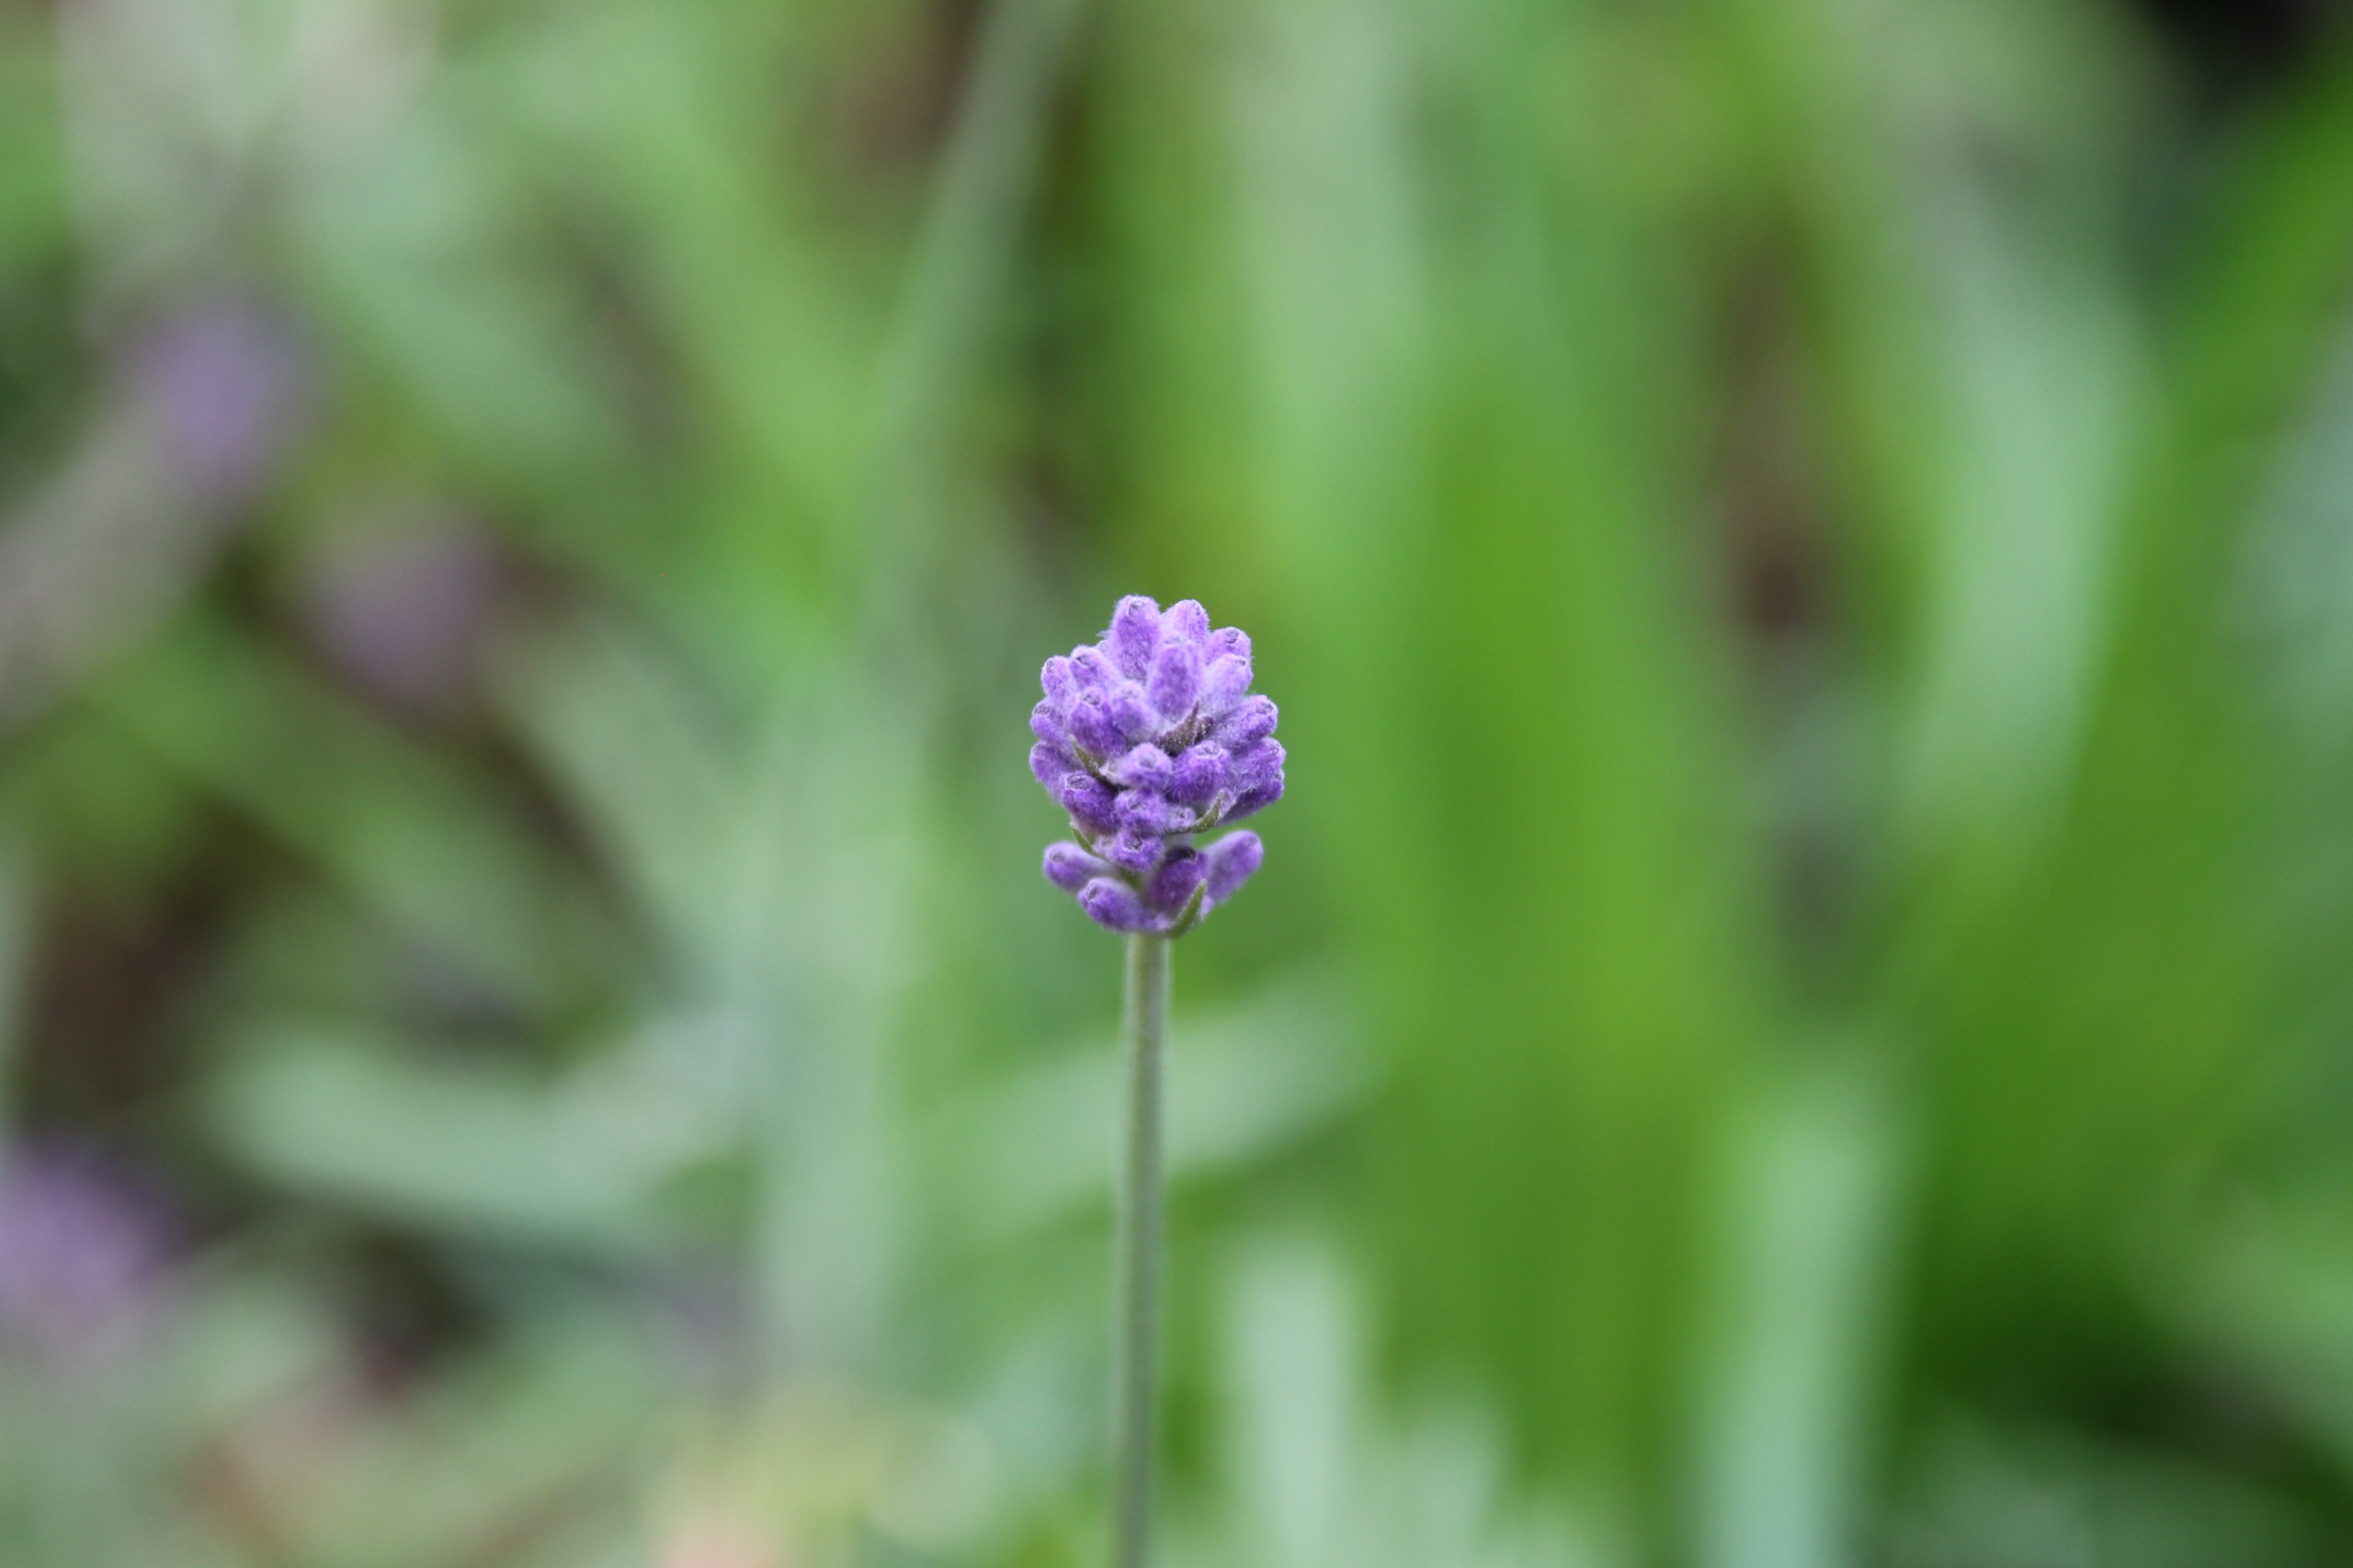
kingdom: Plantae
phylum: Tracheophyta
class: Magnoliopsida
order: Lamiales
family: Lamiaceae
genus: Lavandula
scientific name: Lavandula angustifolia
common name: Ægte lavendel
